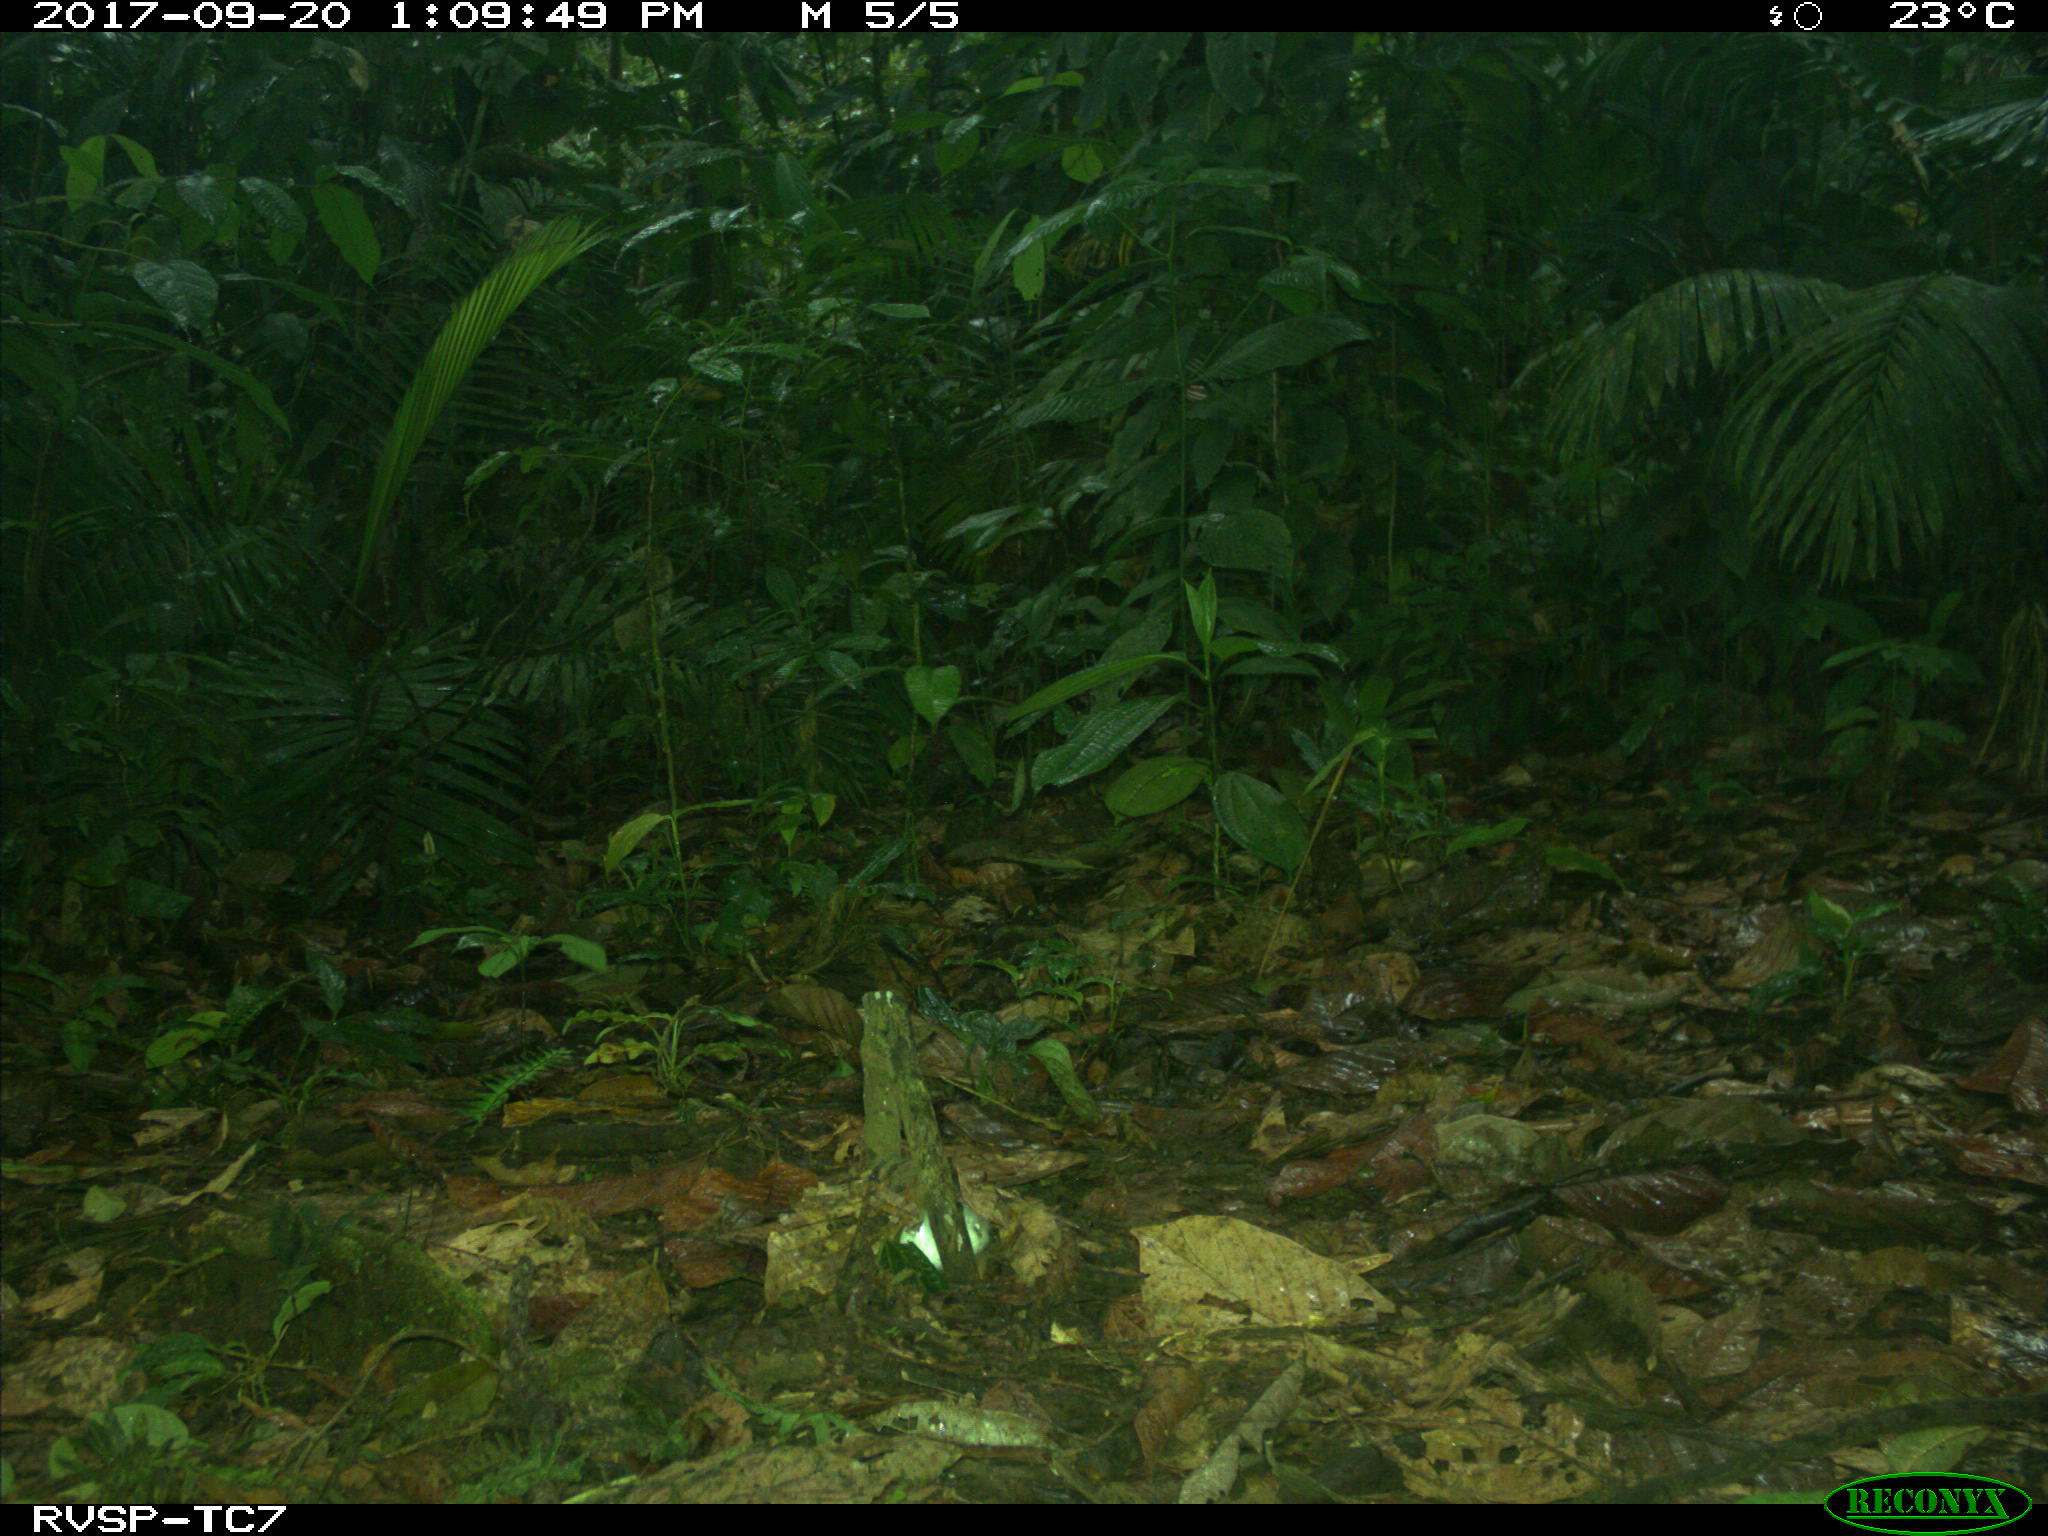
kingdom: Animalia
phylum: Chordata
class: Mammalia
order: Rodentia
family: Dasyproctidae
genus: Dasyprocta
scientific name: Dasyprocta punctata
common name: Central american agouti
